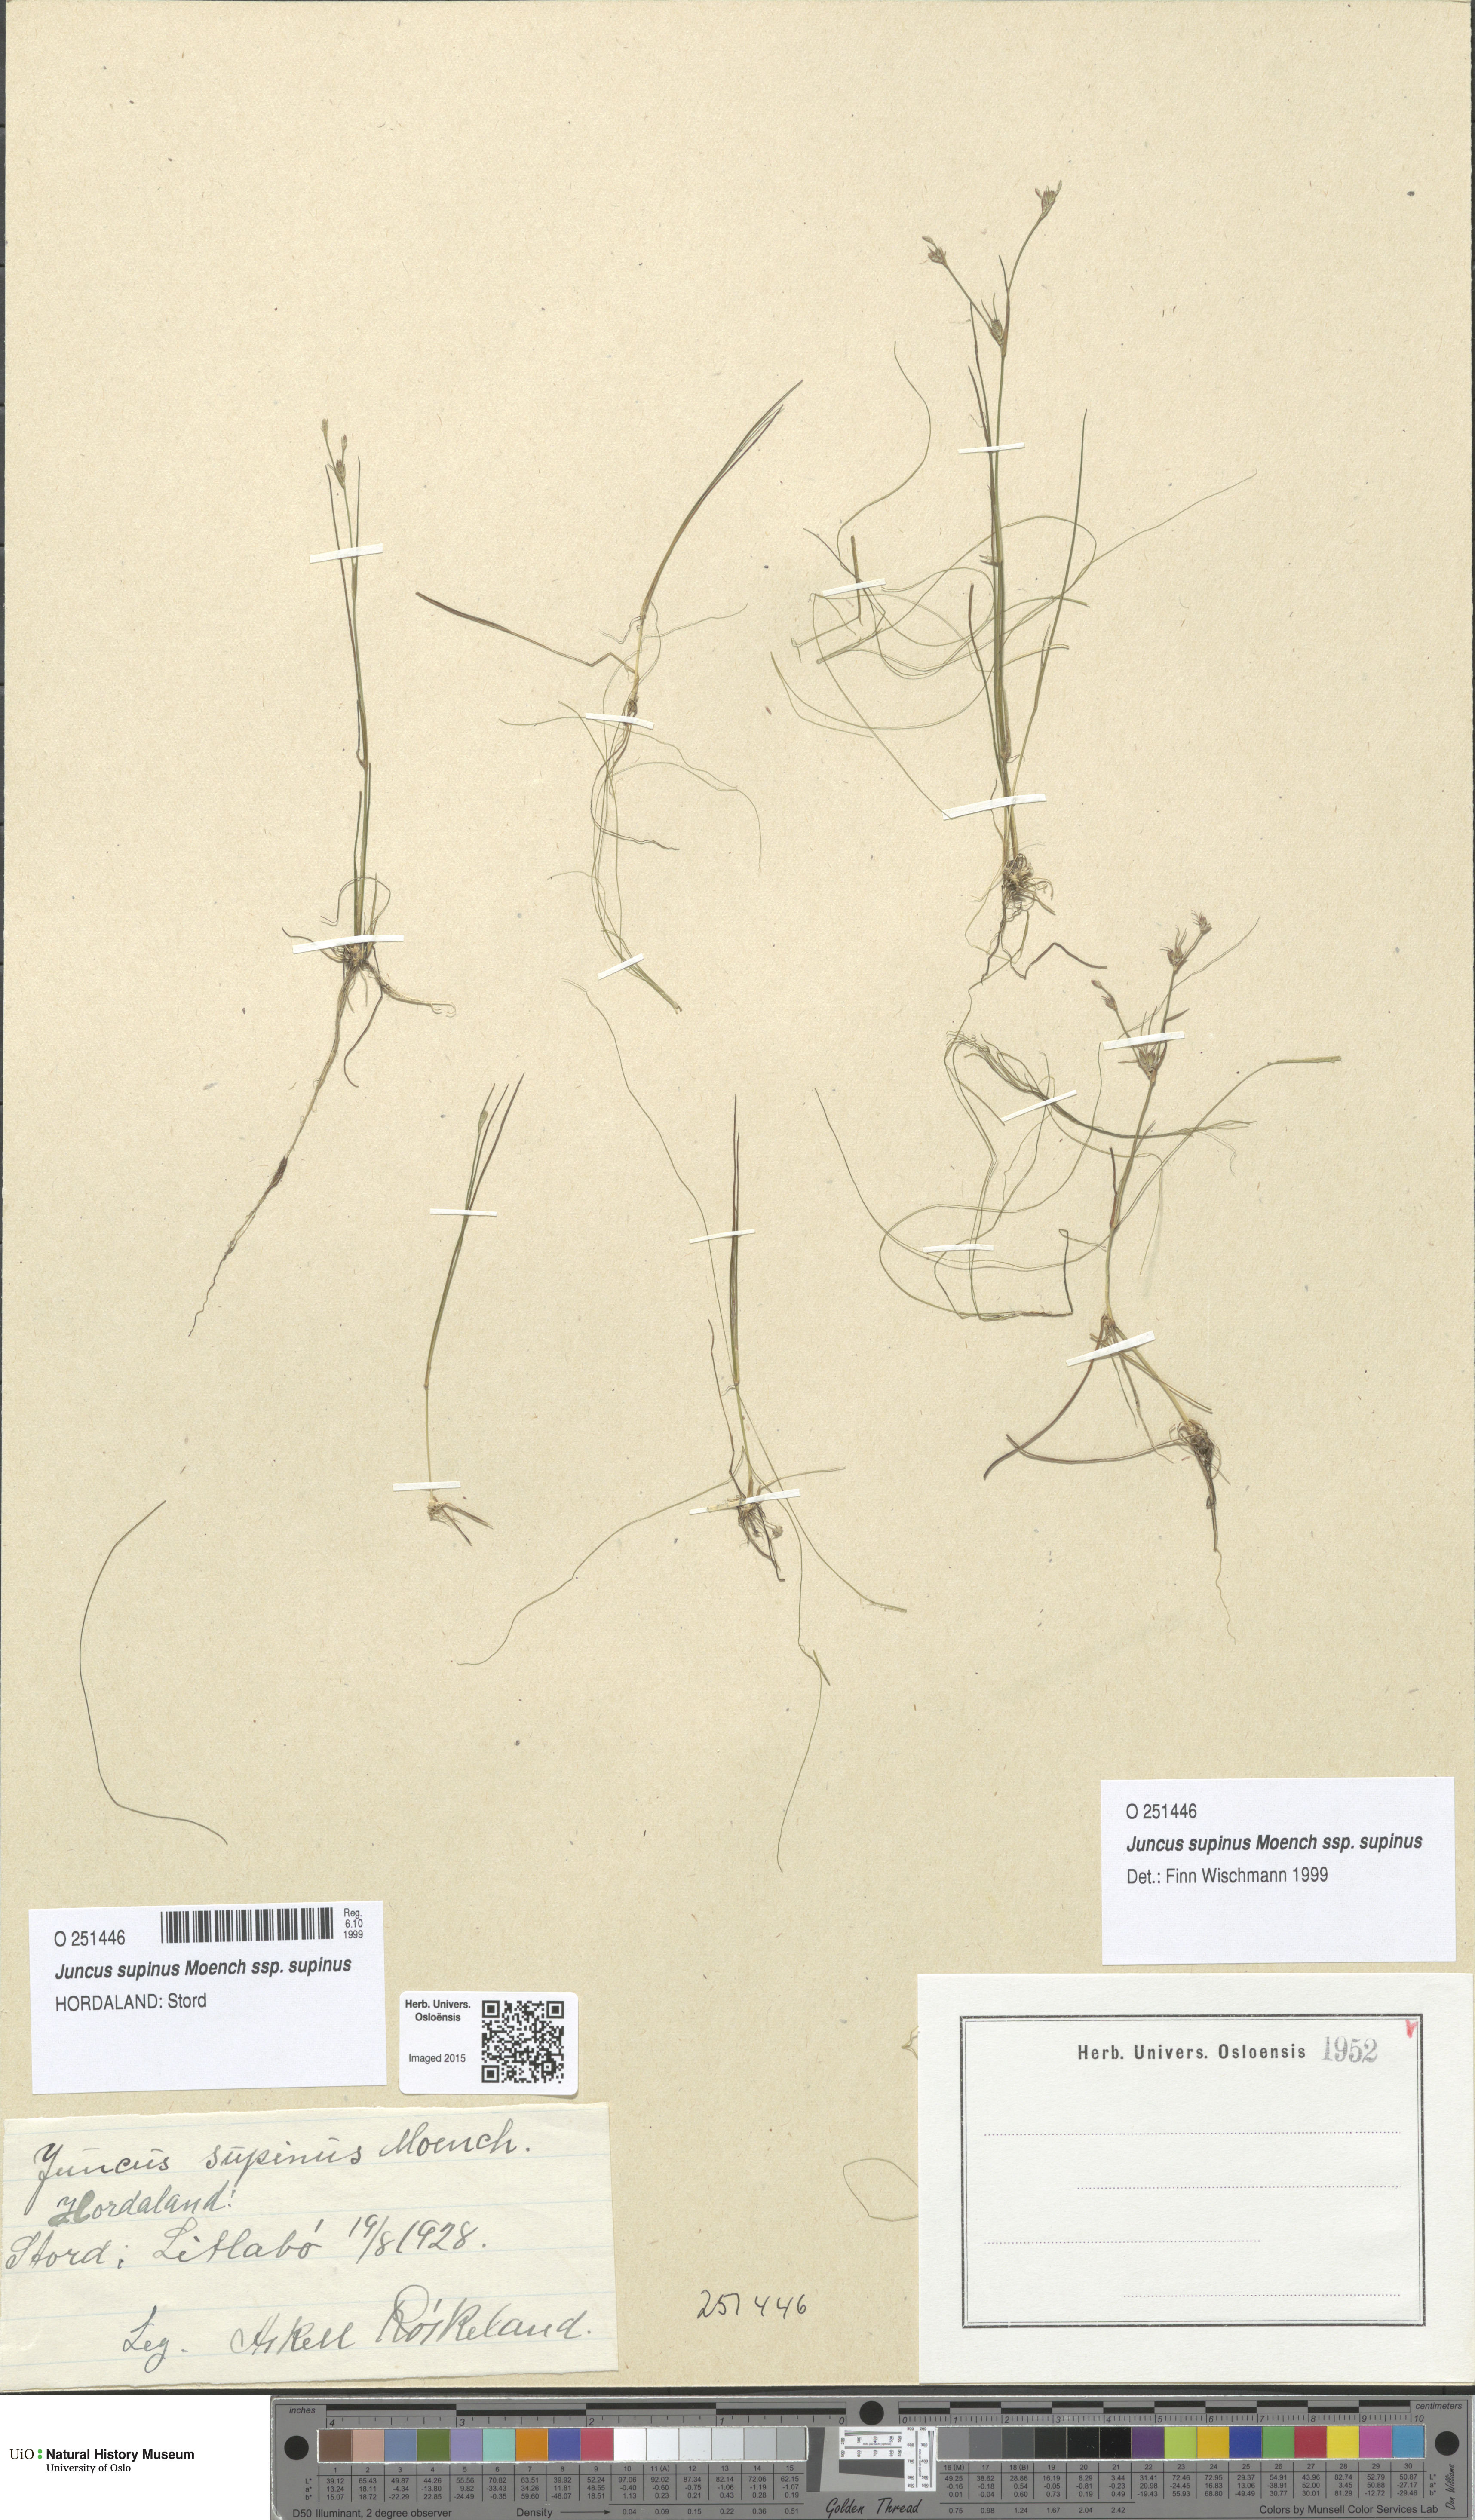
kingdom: Plantae
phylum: Tracheophyta
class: Liliopsida
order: Poales
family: Juncaceae
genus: Juncus
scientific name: Juncus bulbosus
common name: Bulbous rush
